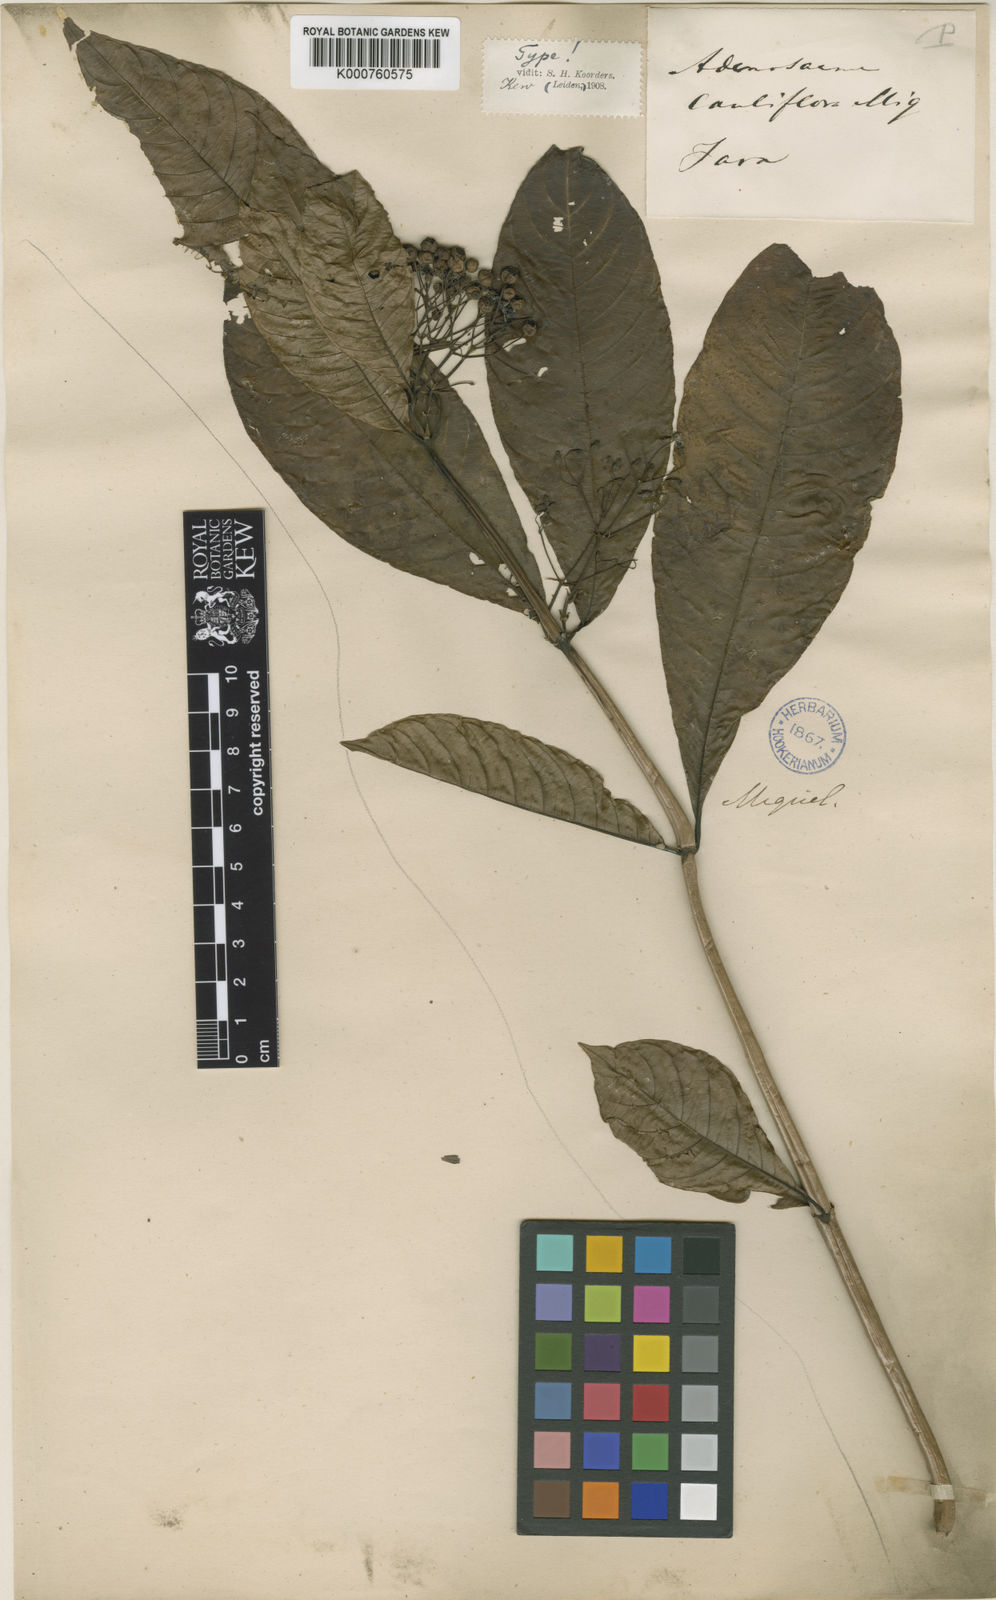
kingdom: Plantae
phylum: Tracheophyta
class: Magnoliopsida
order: Gentianales
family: Rubiaceae
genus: Mycetia
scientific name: Mycetia cauliflora
